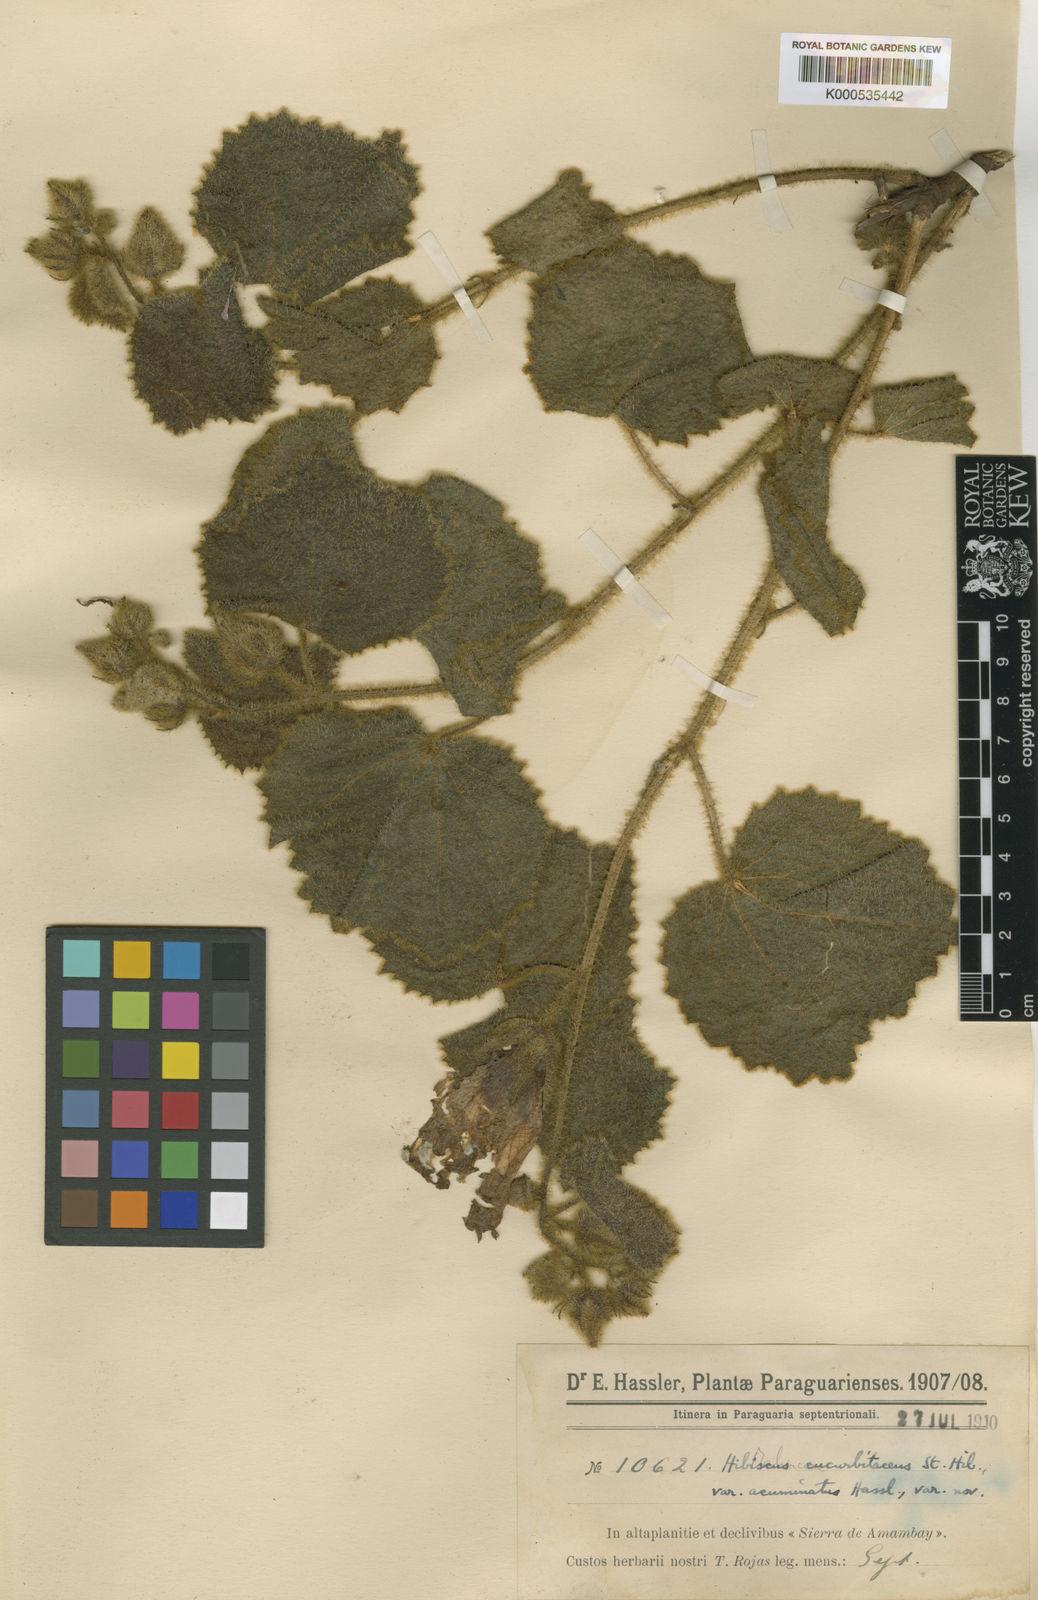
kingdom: Plantae
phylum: Tracheophyta
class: Magnoliopsida
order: Malvales
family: Malvaceae
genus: Hibiscus
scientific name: Hibiscus cucurbitaceus
